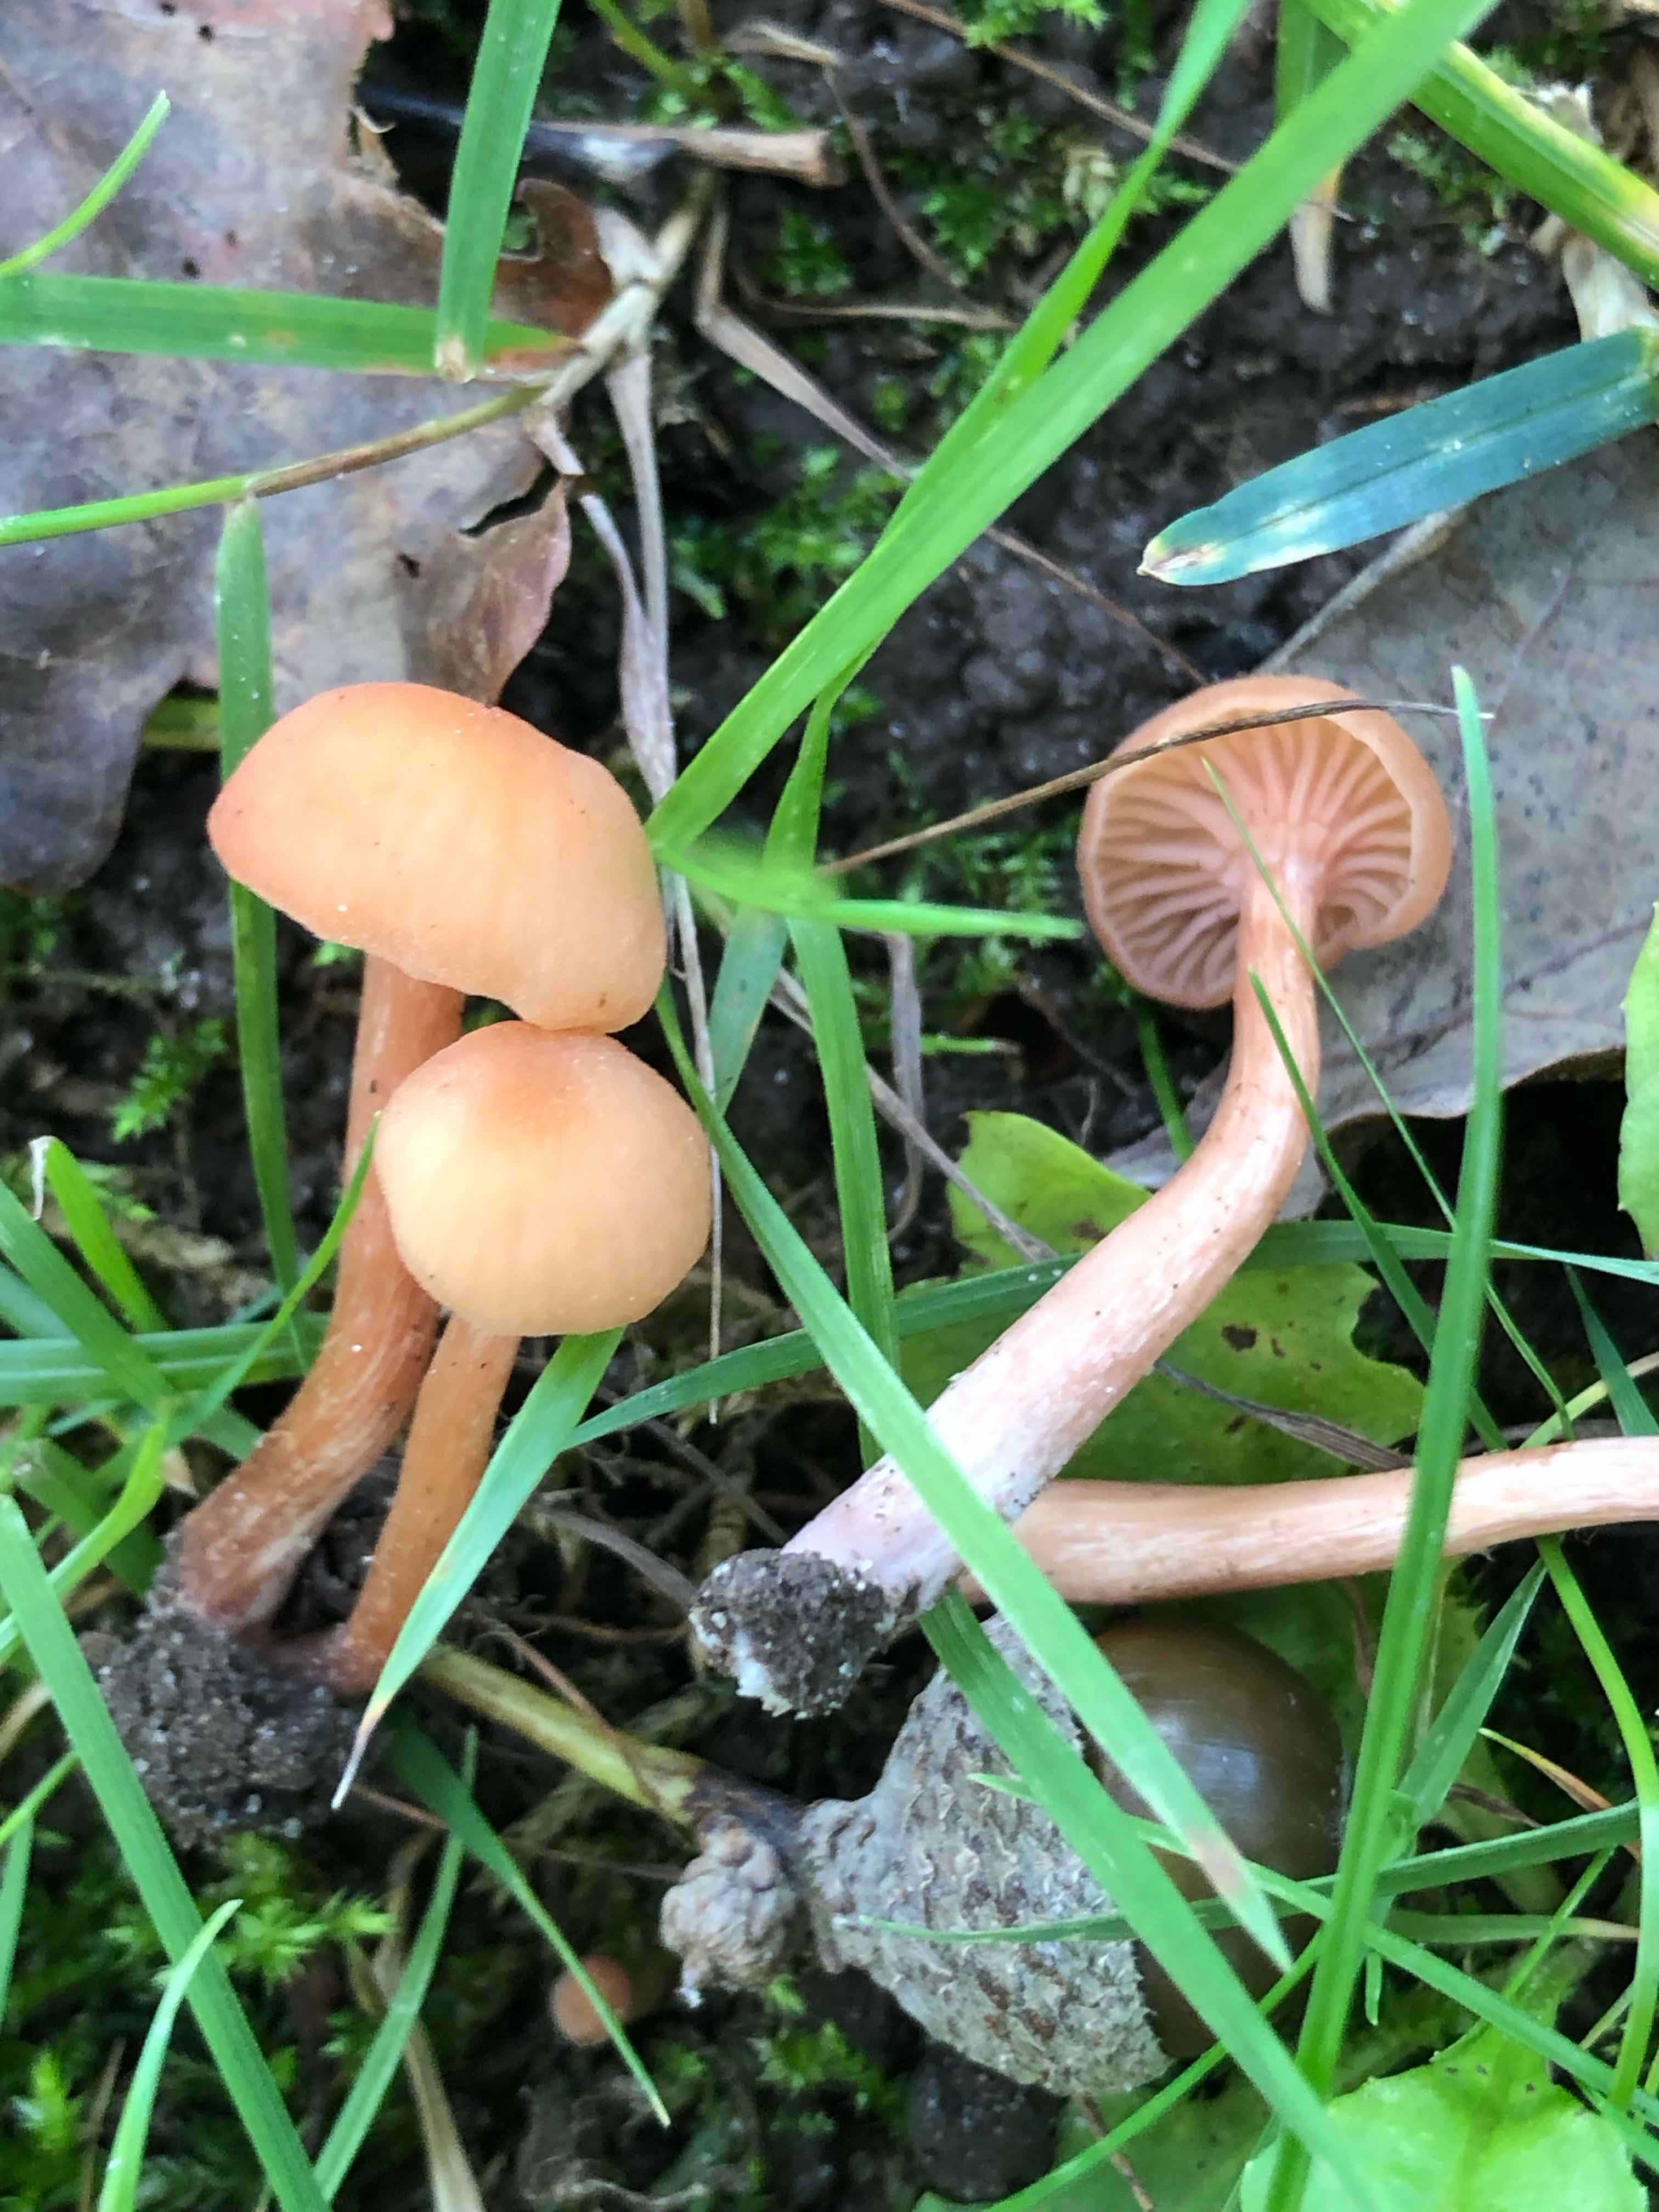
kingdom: Fungi
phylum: Basidiomycota
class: Agaricomycetes
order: Agaricales
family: Hydnangiaceae
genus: Laccaria
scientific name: Laccaria laccata
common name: rød ametysthat
